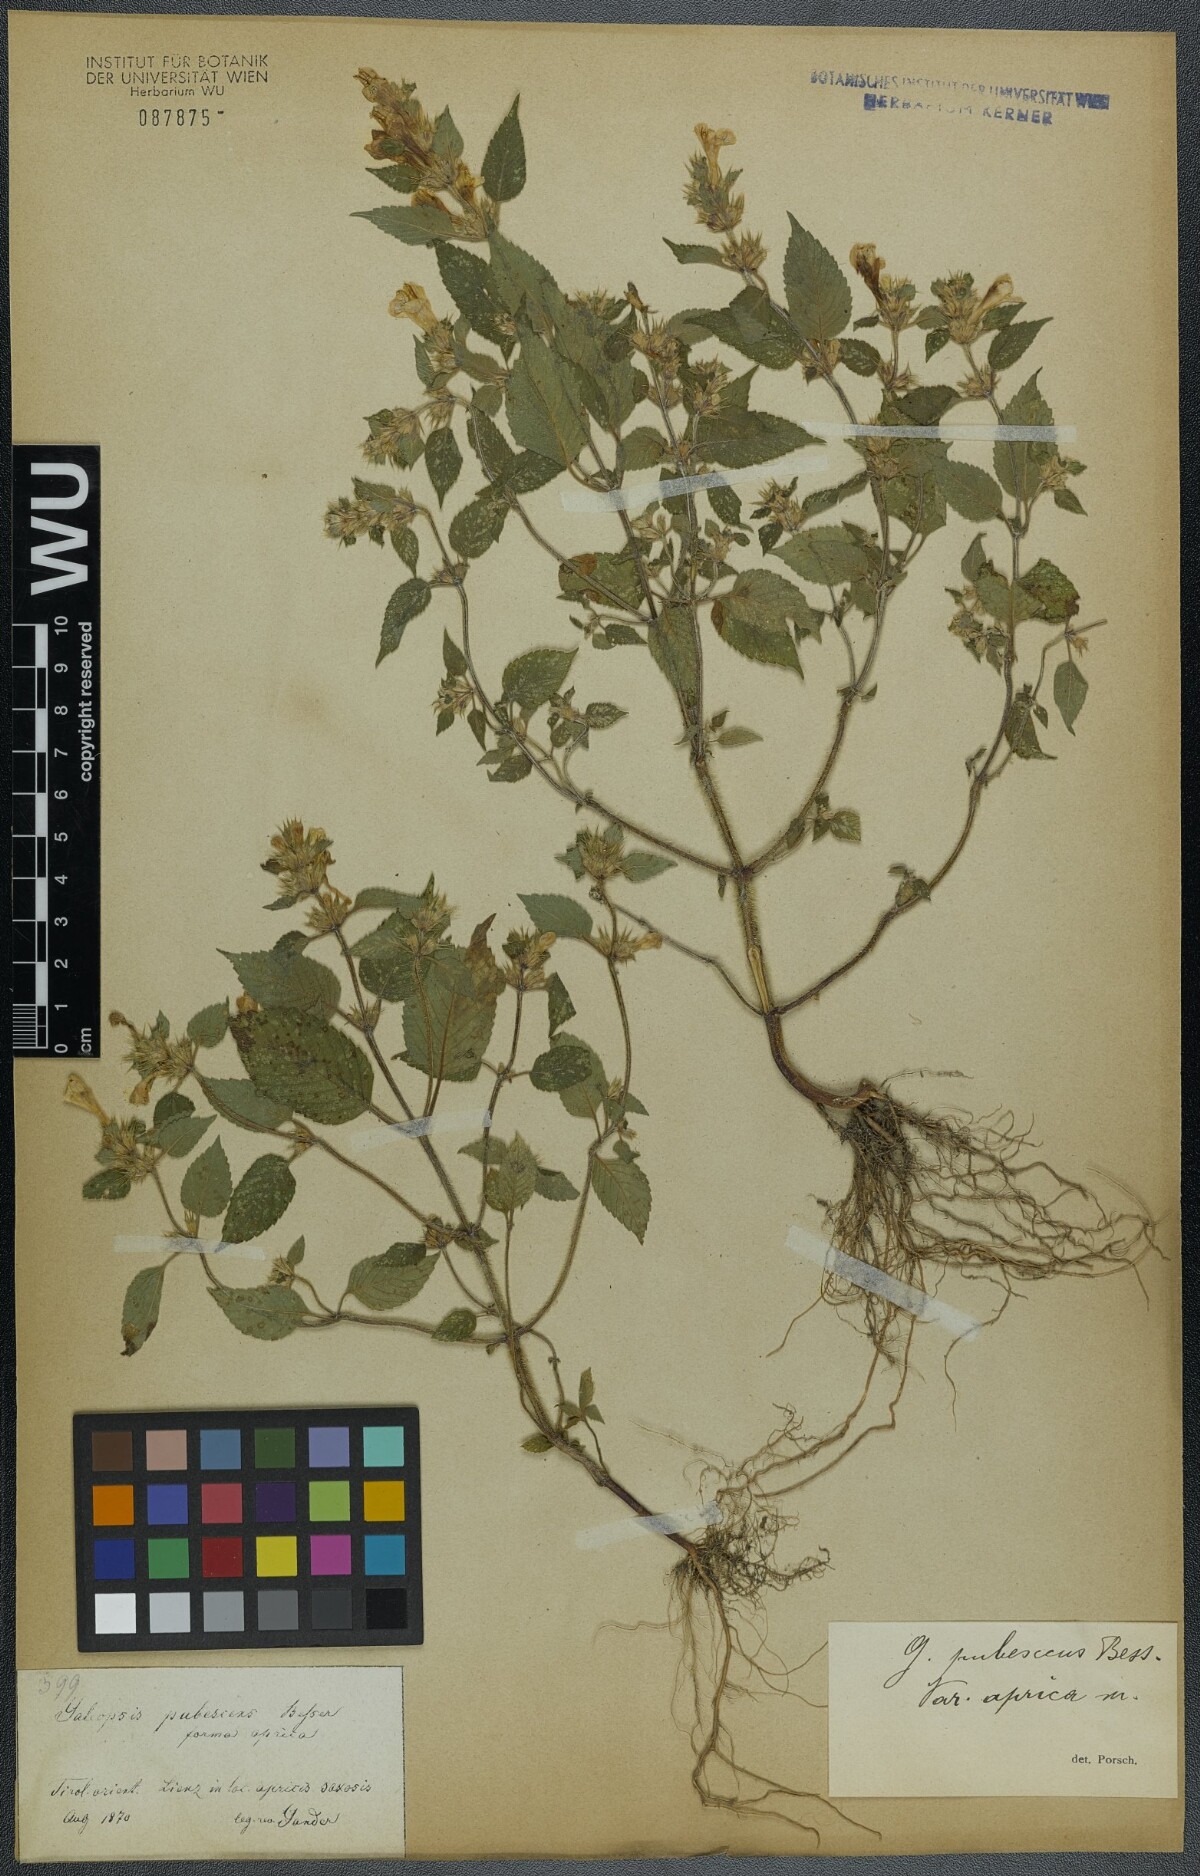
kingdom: Plantae
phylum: Tracheophyta
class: Magnoliopsida
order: Lamiales
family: Lamiaceae
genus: Galeopsis
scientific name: Galeopsis pubescens
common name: Downy hemp-nettle
